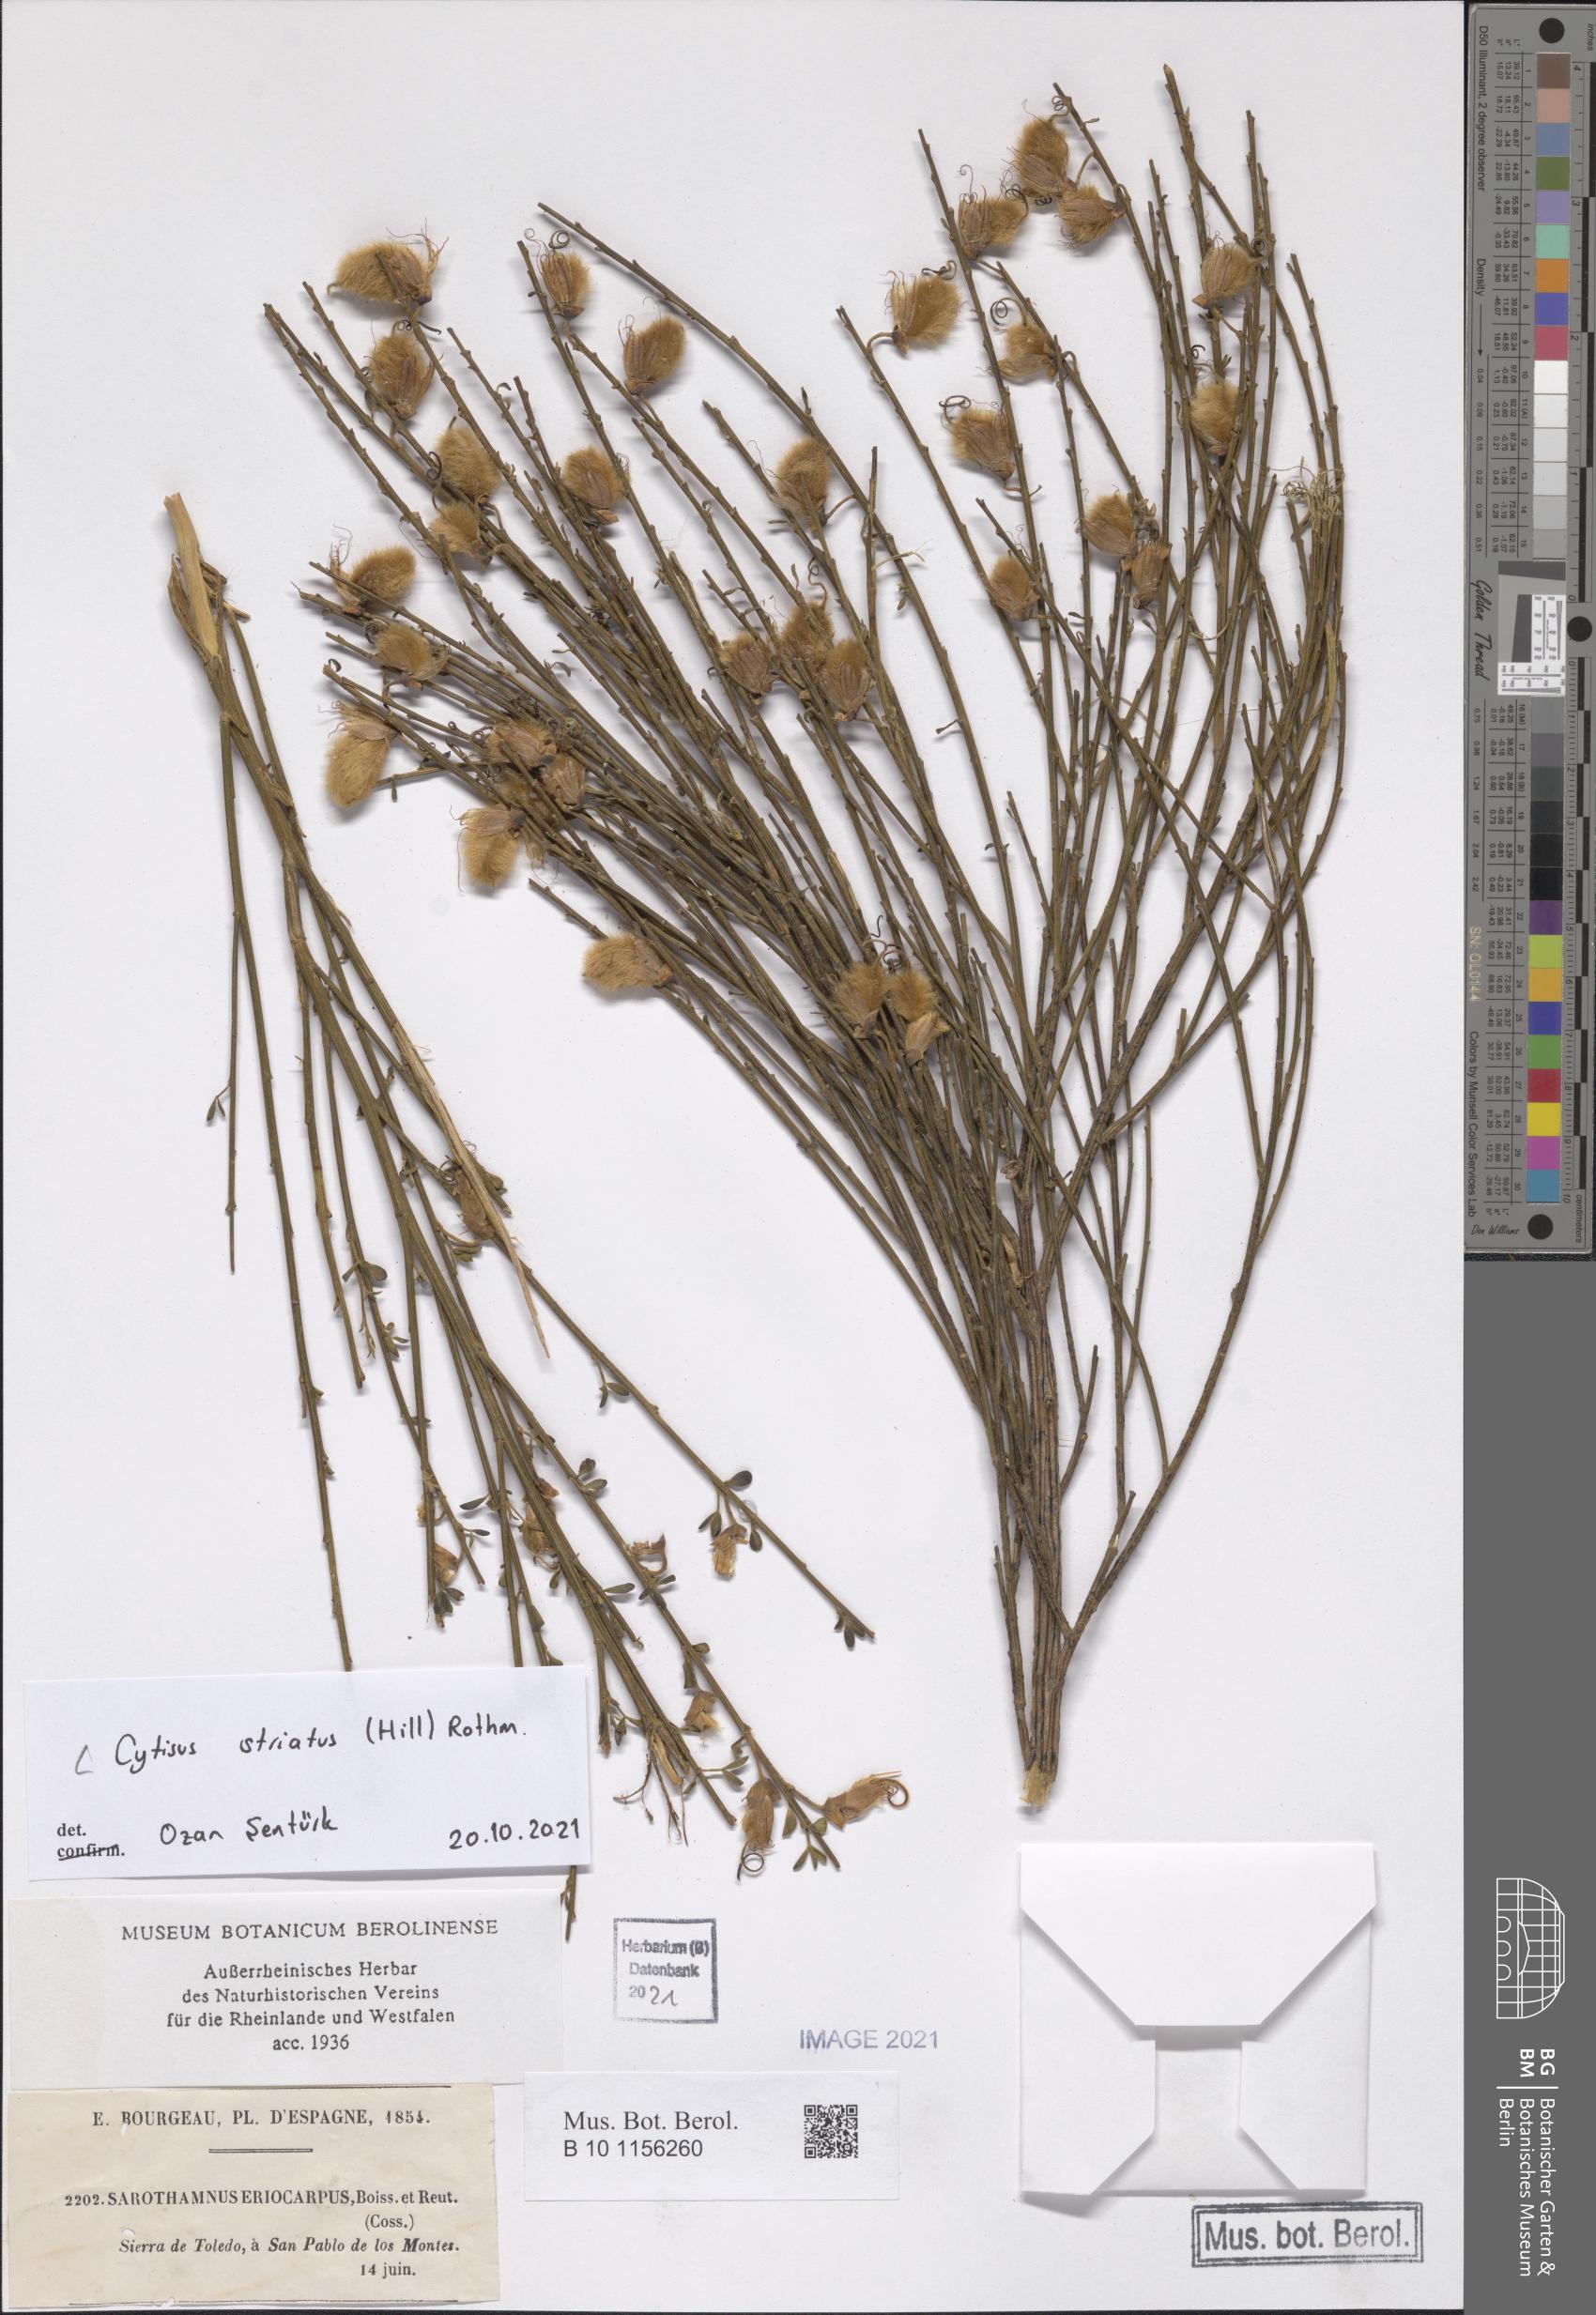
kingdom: Plantae
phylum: Tracheophyta
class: Magnoliopsida
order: Fabales
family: Fabaceae
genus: Cytisus
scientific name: Cytisus striatus
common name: Hairy-fruited broom
